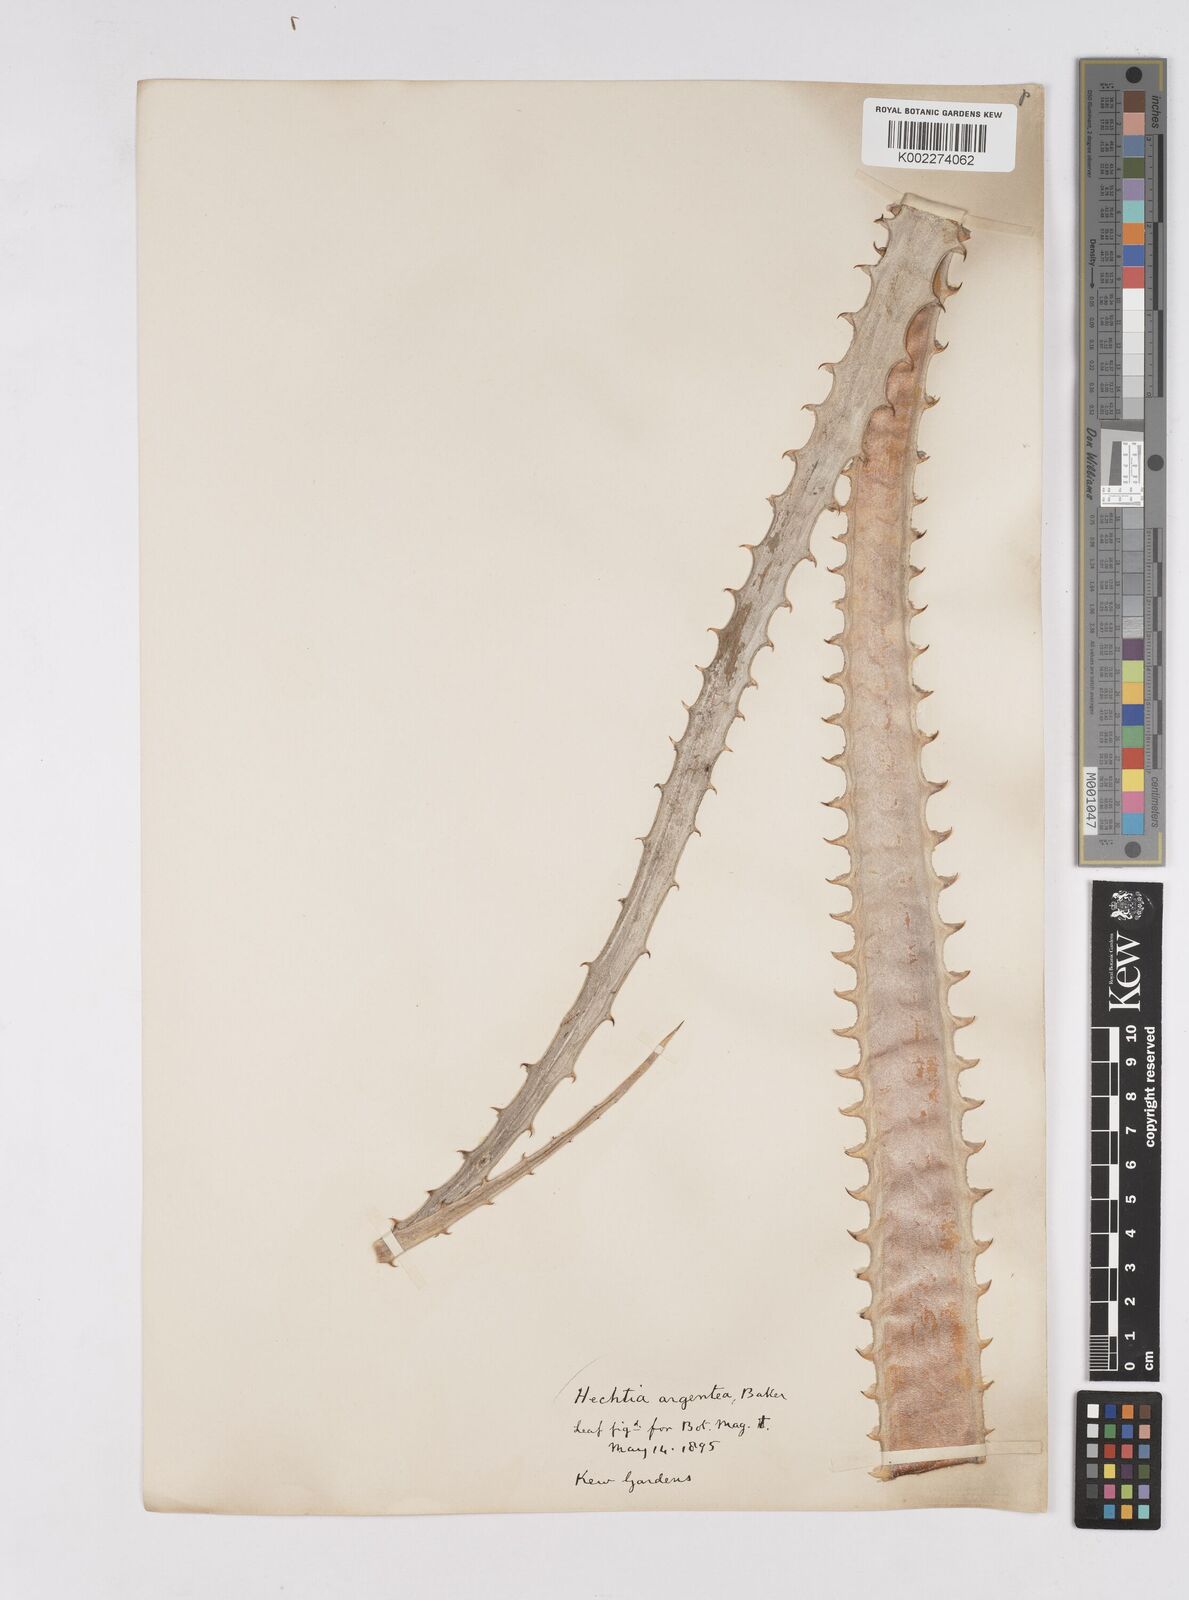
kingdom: Plantae
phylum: Tracheophyta
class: Liliopsida
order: Poales
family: Bromeliaceae
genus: Hechtia
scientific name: Hechtia argentea
